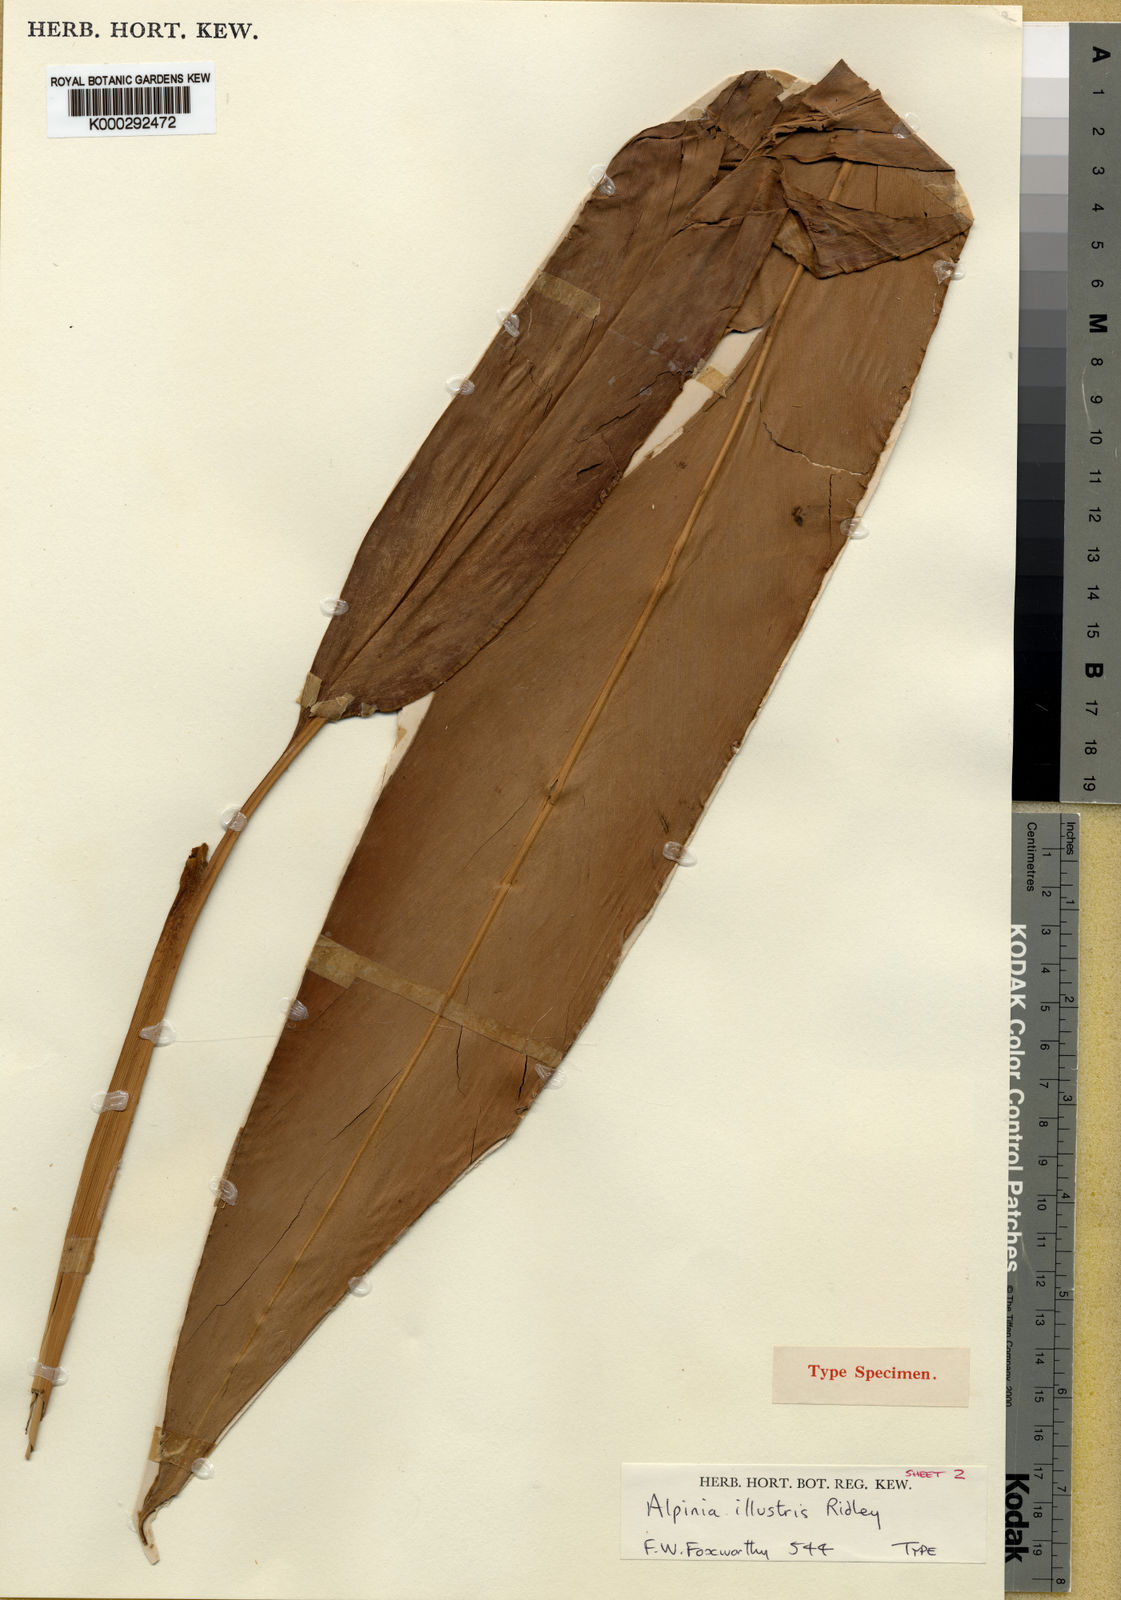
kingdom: Plantae
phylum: Tracheophyta
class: Liliopsida
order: Zingiberales
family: Zingiberaceae
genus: Alpinia
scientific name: Alpinia illustris
